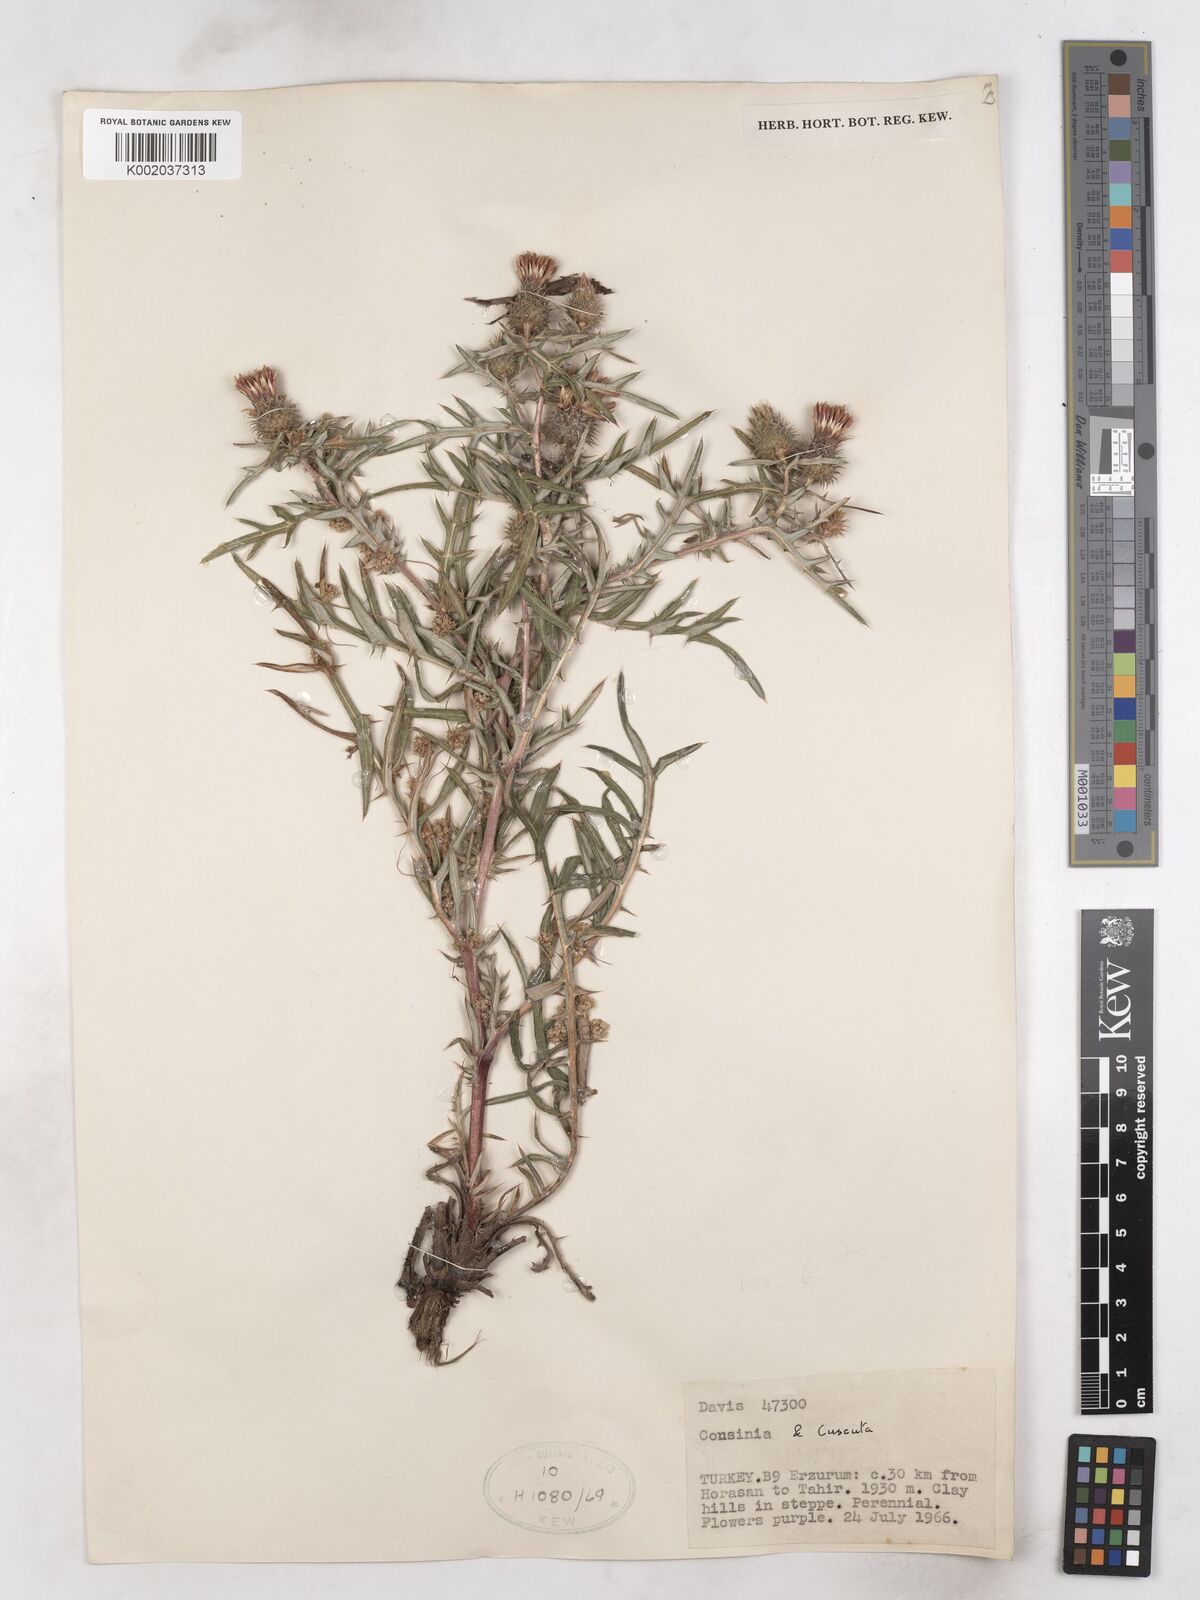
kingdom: Plantae
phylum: Tracheophyta
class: Magnoliopsida
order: Asterales
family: Asteraceae
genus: Cousinia
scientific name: Cousinia brachyptera
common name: Short-winged cousinia
